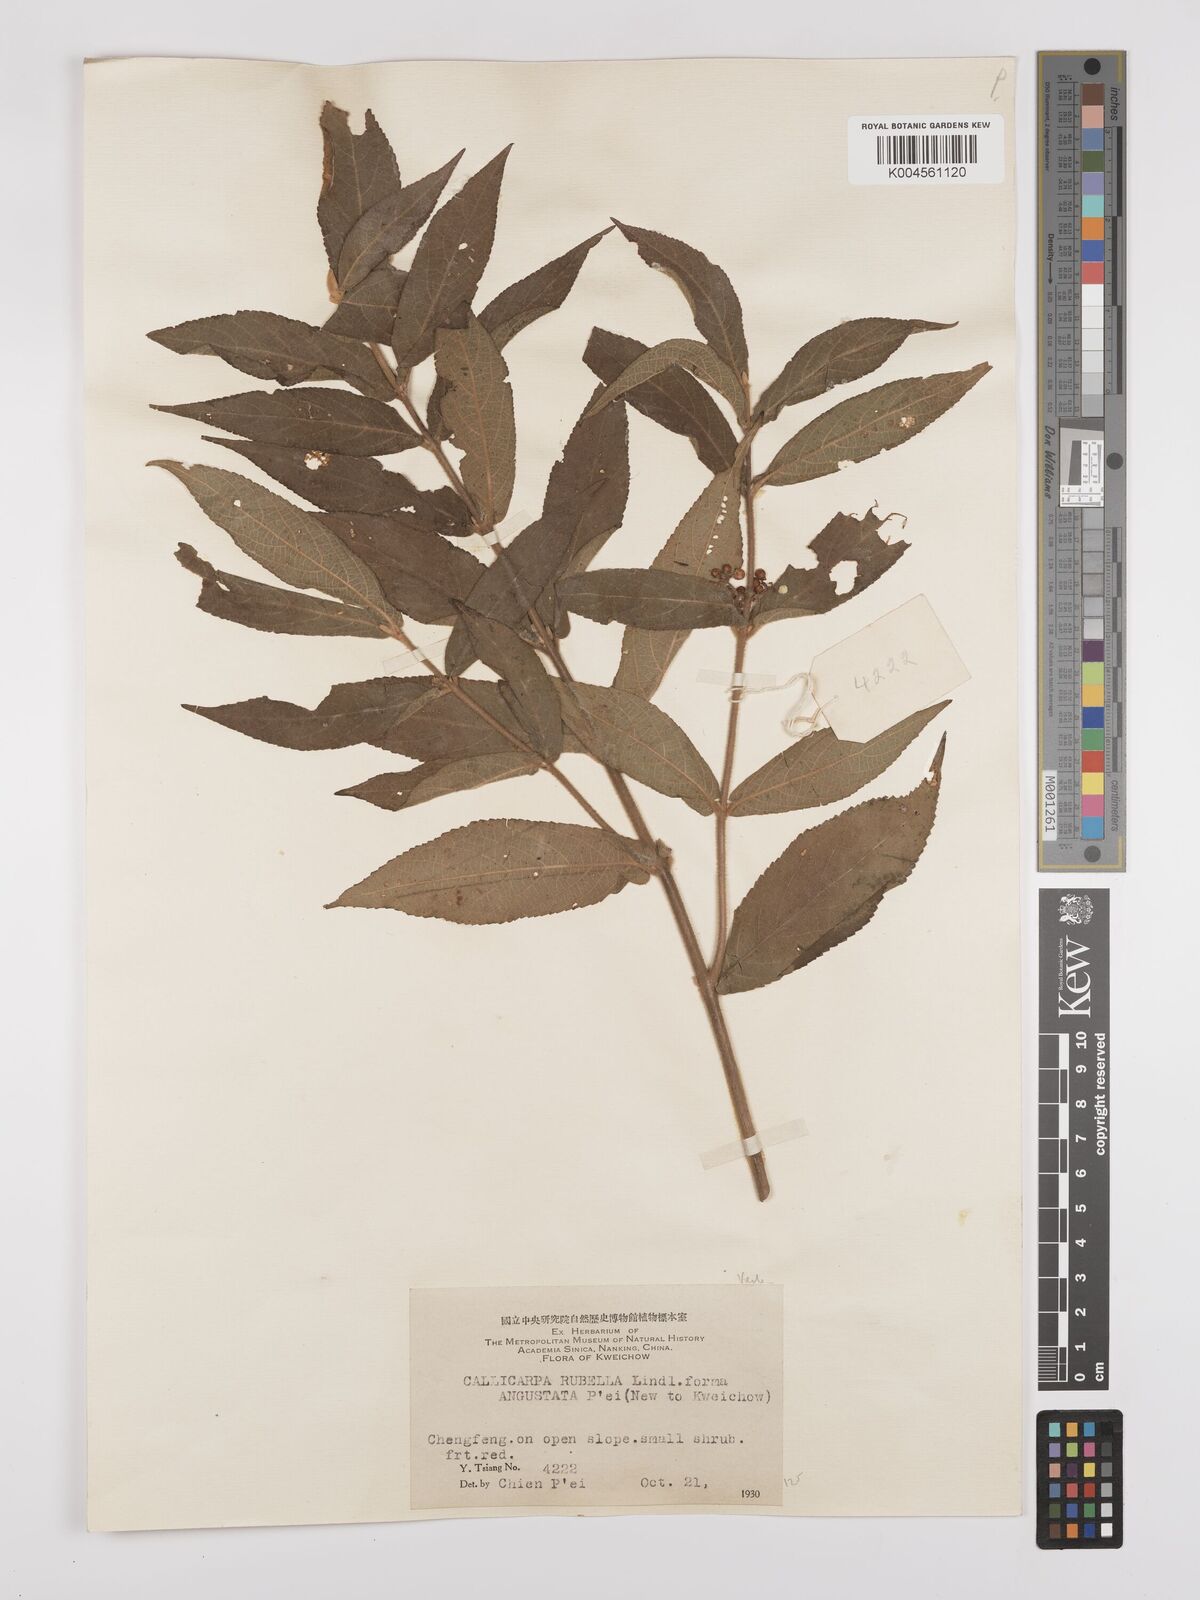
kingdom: Plantae
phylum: Tracheophyta
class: Magnoliopsida
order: Lamiales
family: Lamiaceae
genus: Callicarpa
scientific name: Callicarpa rubella
